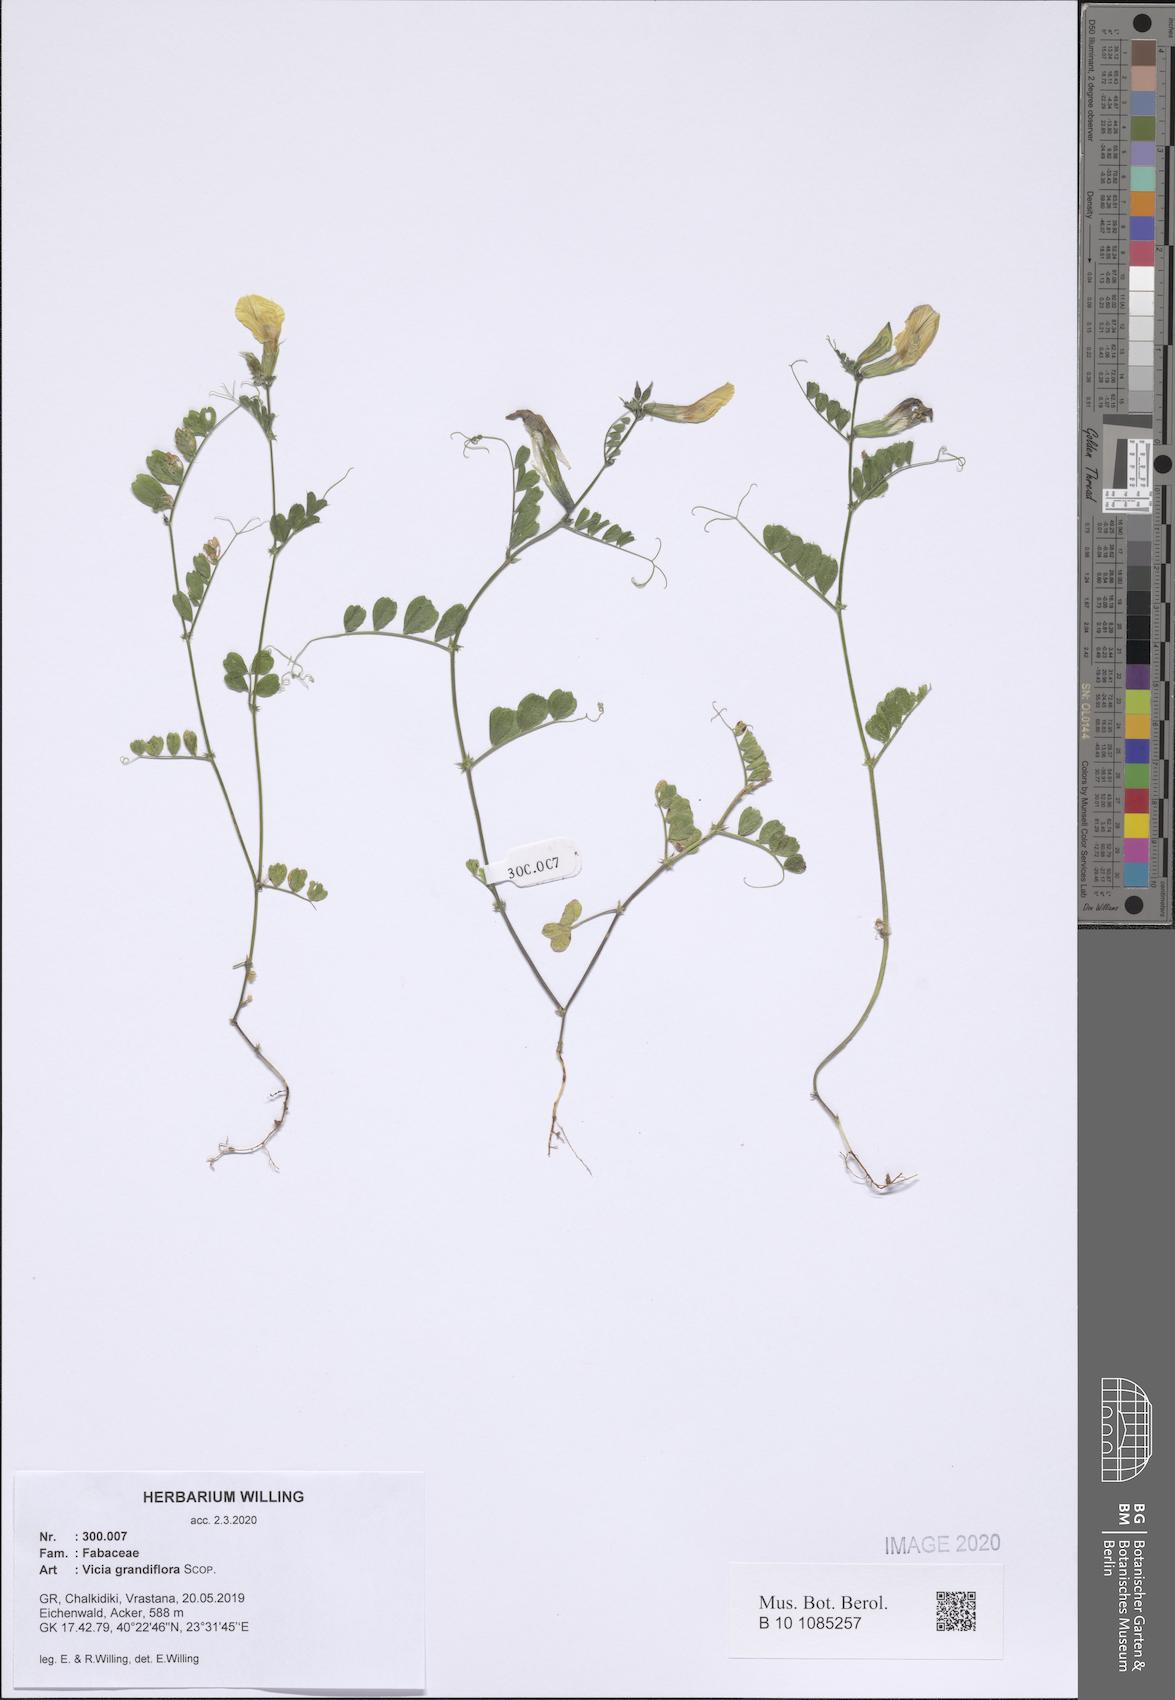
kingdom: Plantae
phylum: Tracheophyta
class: Magnoliopsida
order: Fabales
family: Fabaceae
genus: Vicia
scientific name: Vicia grandiflora
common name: Large yellow vetch
